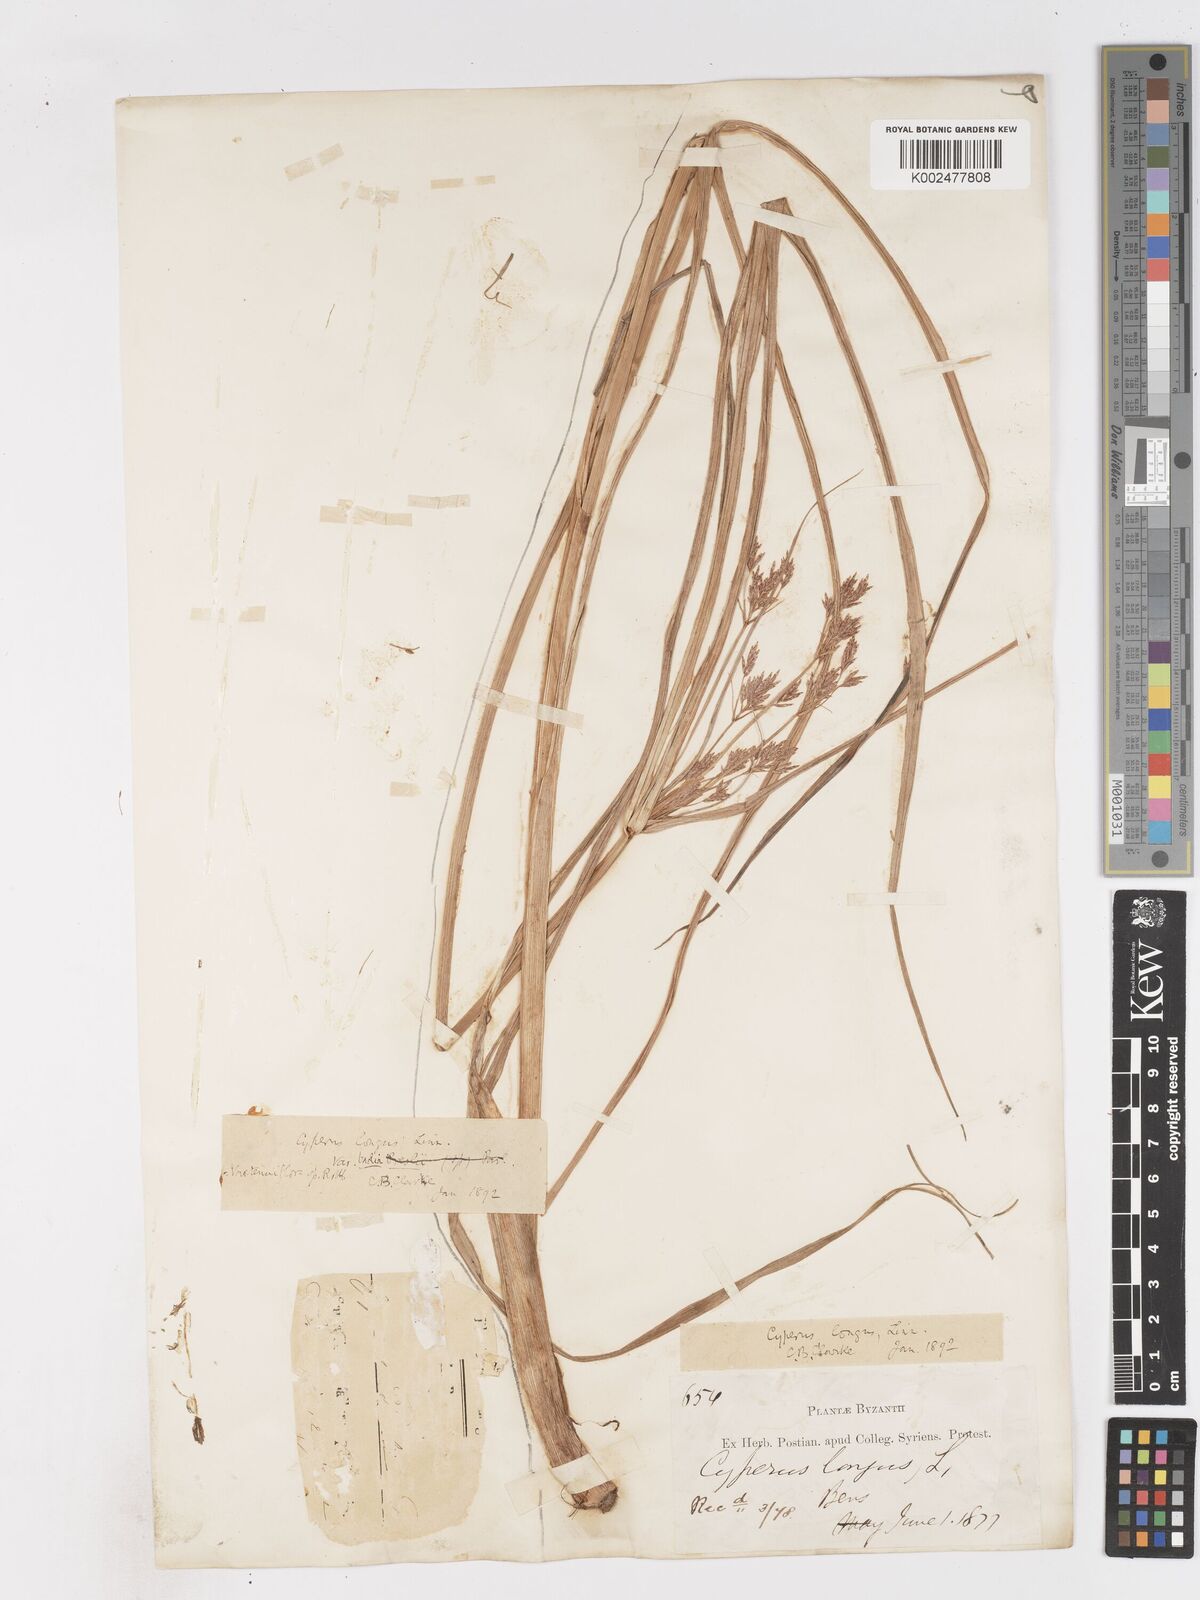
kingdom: Plantae
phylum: Tracheophyta
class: Liliopsida
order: Poales
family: Cyperaceae
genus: Cyperus
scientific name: Cyperus longus
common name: Galingale
